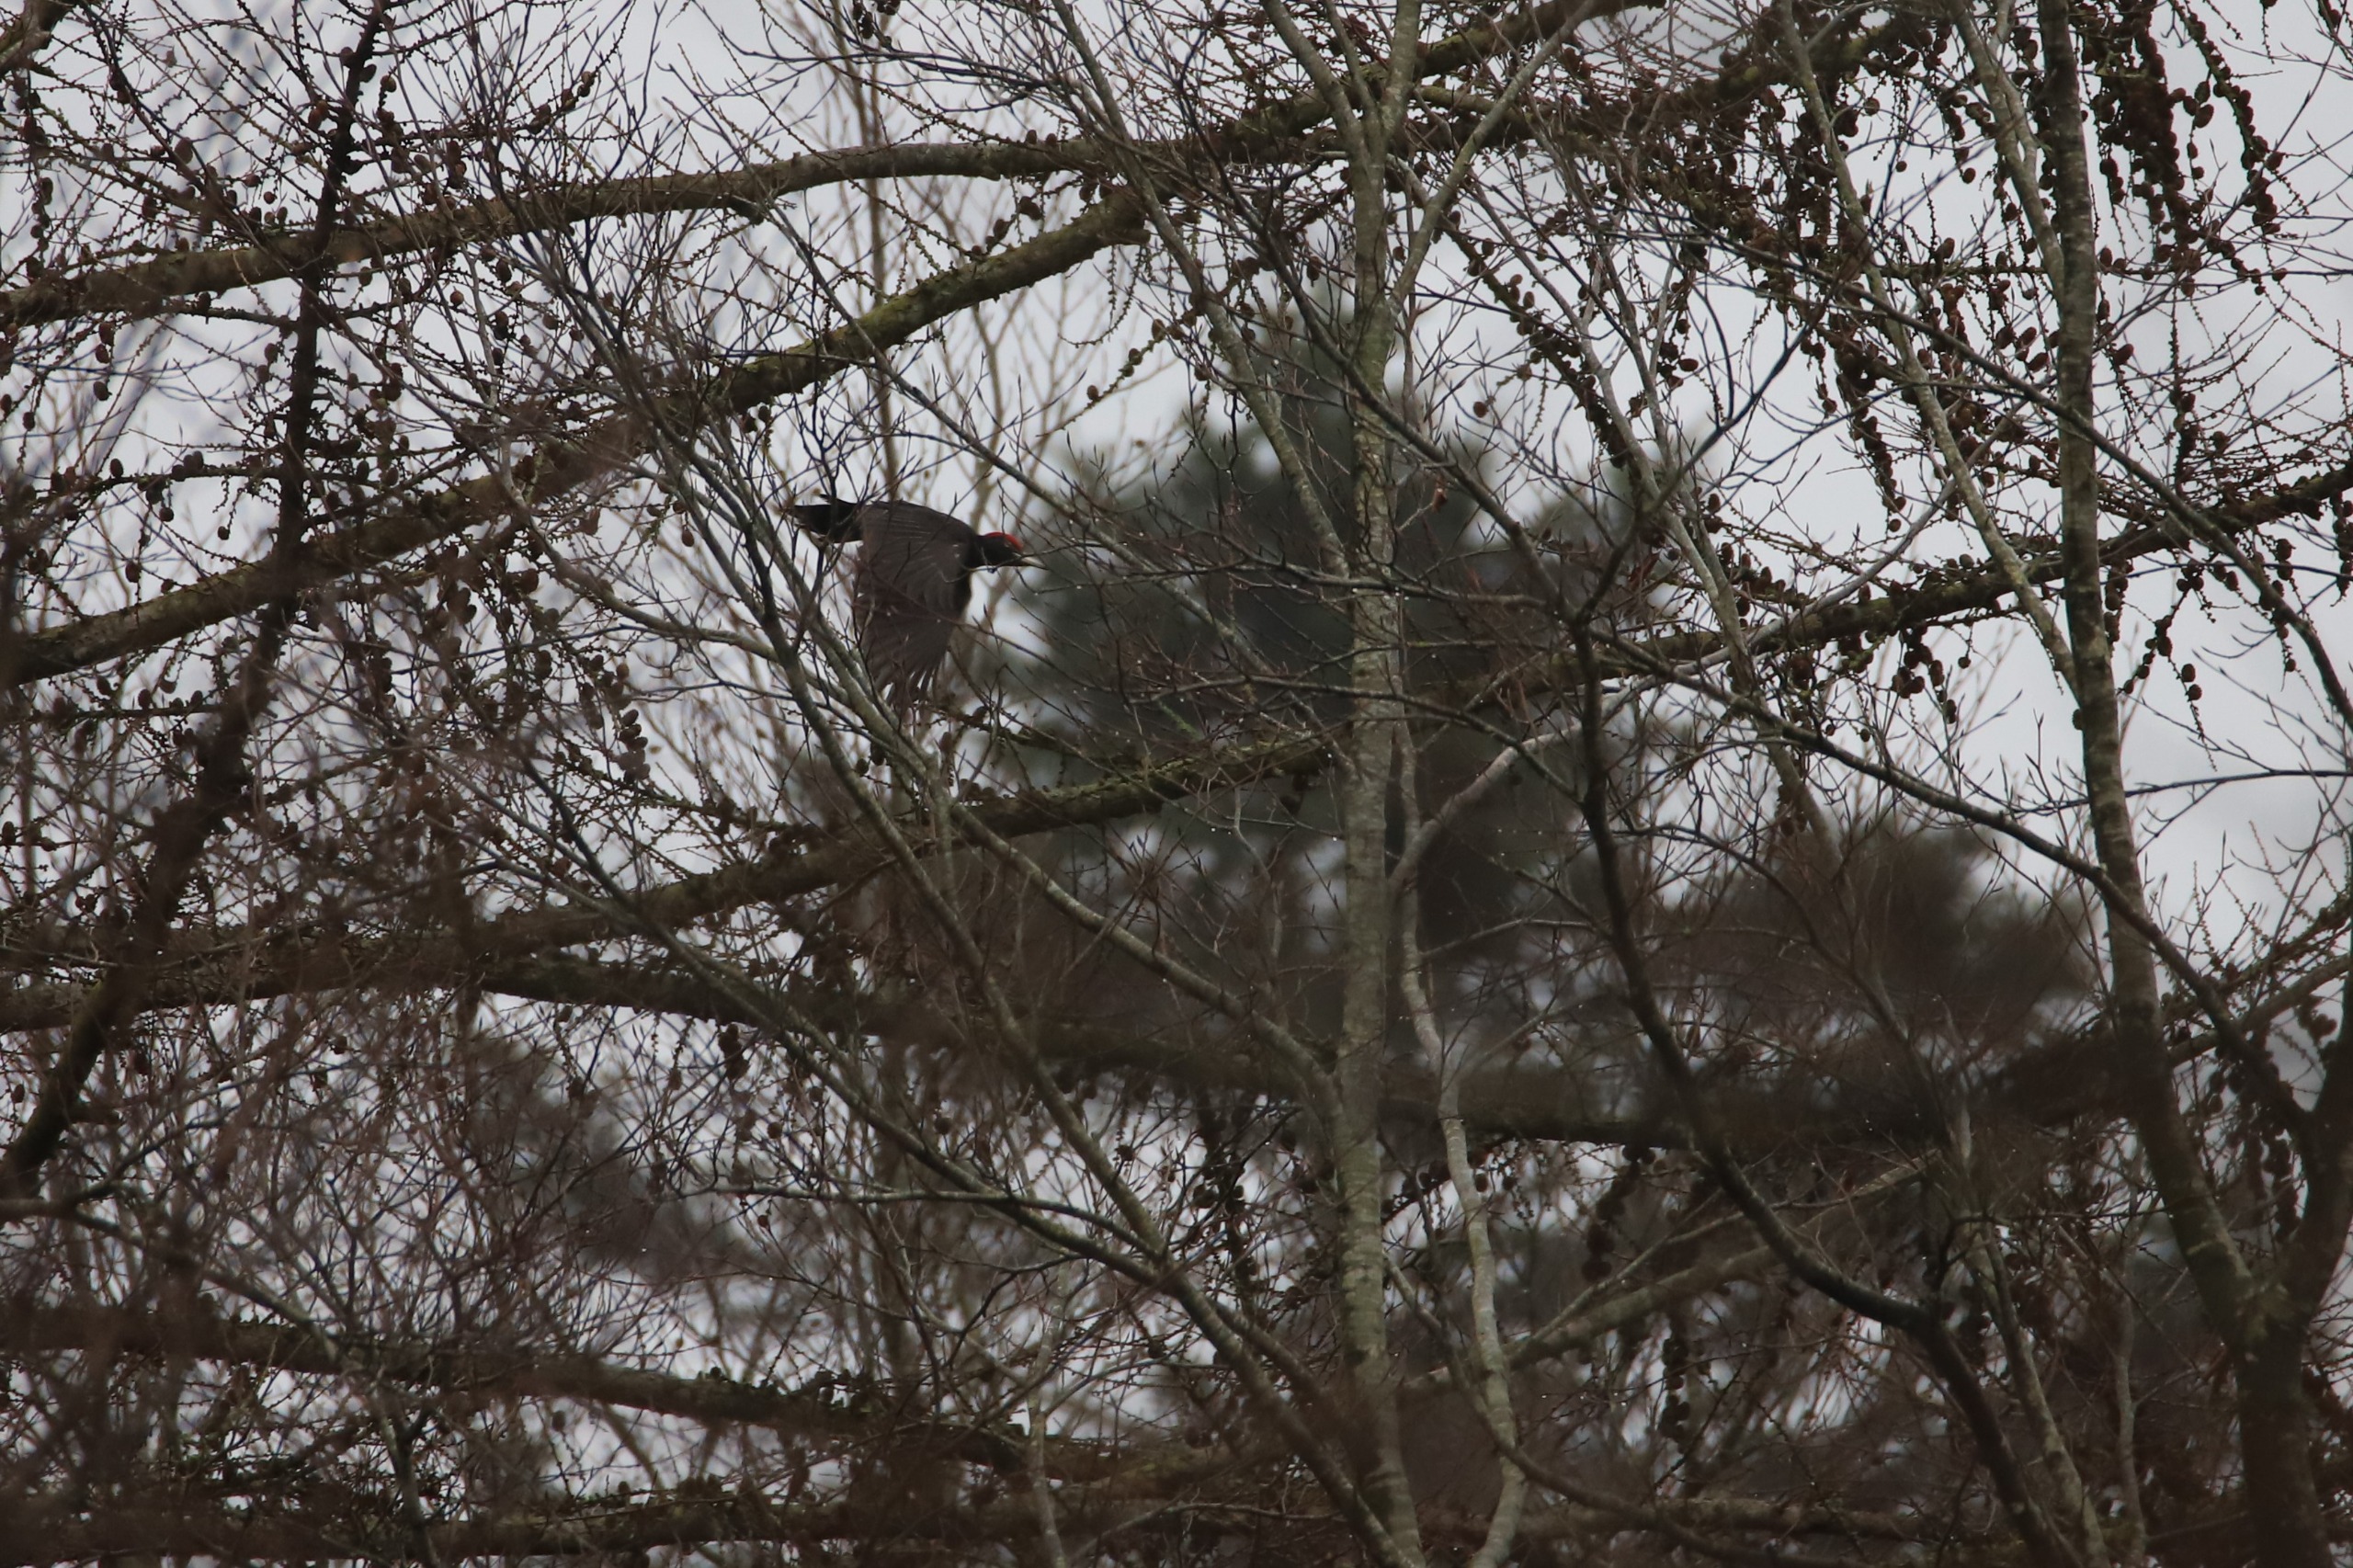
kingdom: Animalia
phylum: Chordata
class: Aves
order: Piciformes
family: Picidae
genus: Dryocopus
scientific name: Dryocopus martius
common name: Sortspætte
